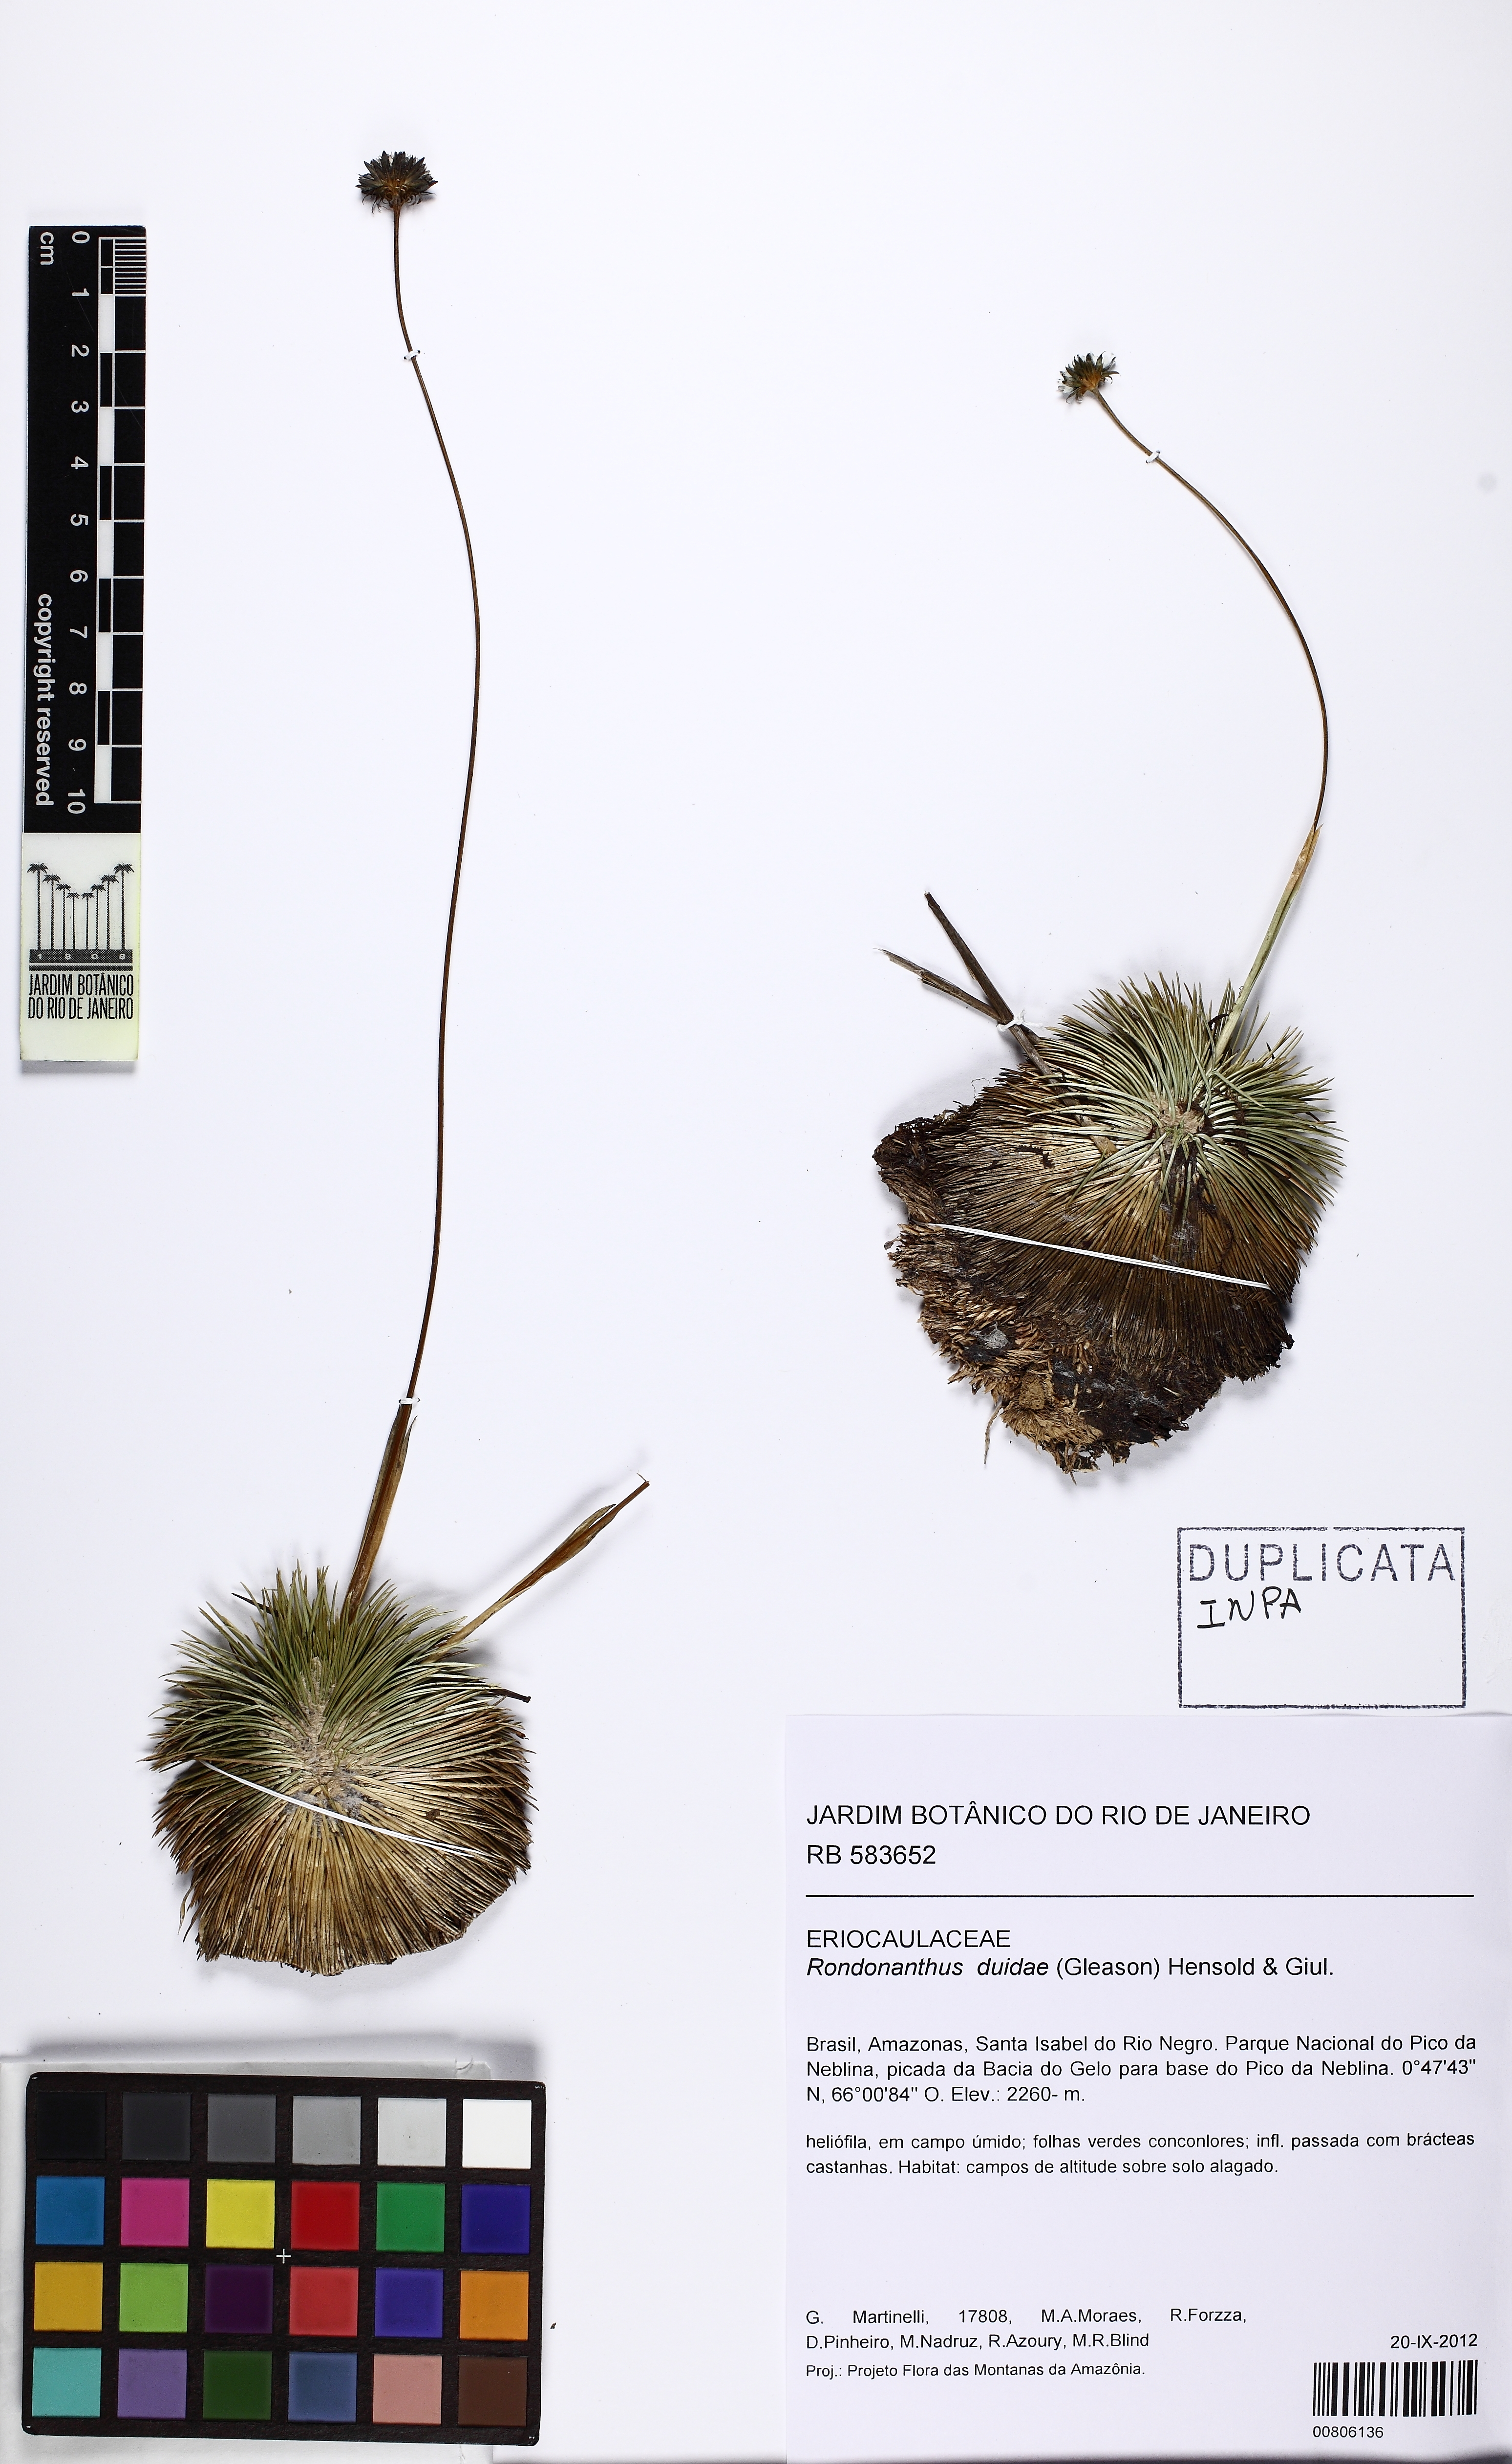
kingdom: Plantae
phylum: Tracheophyta
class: Liliopsida
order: Poales
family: Eriocaulaceae
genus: Rondonanthus
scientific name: Rondonanthus duidae
